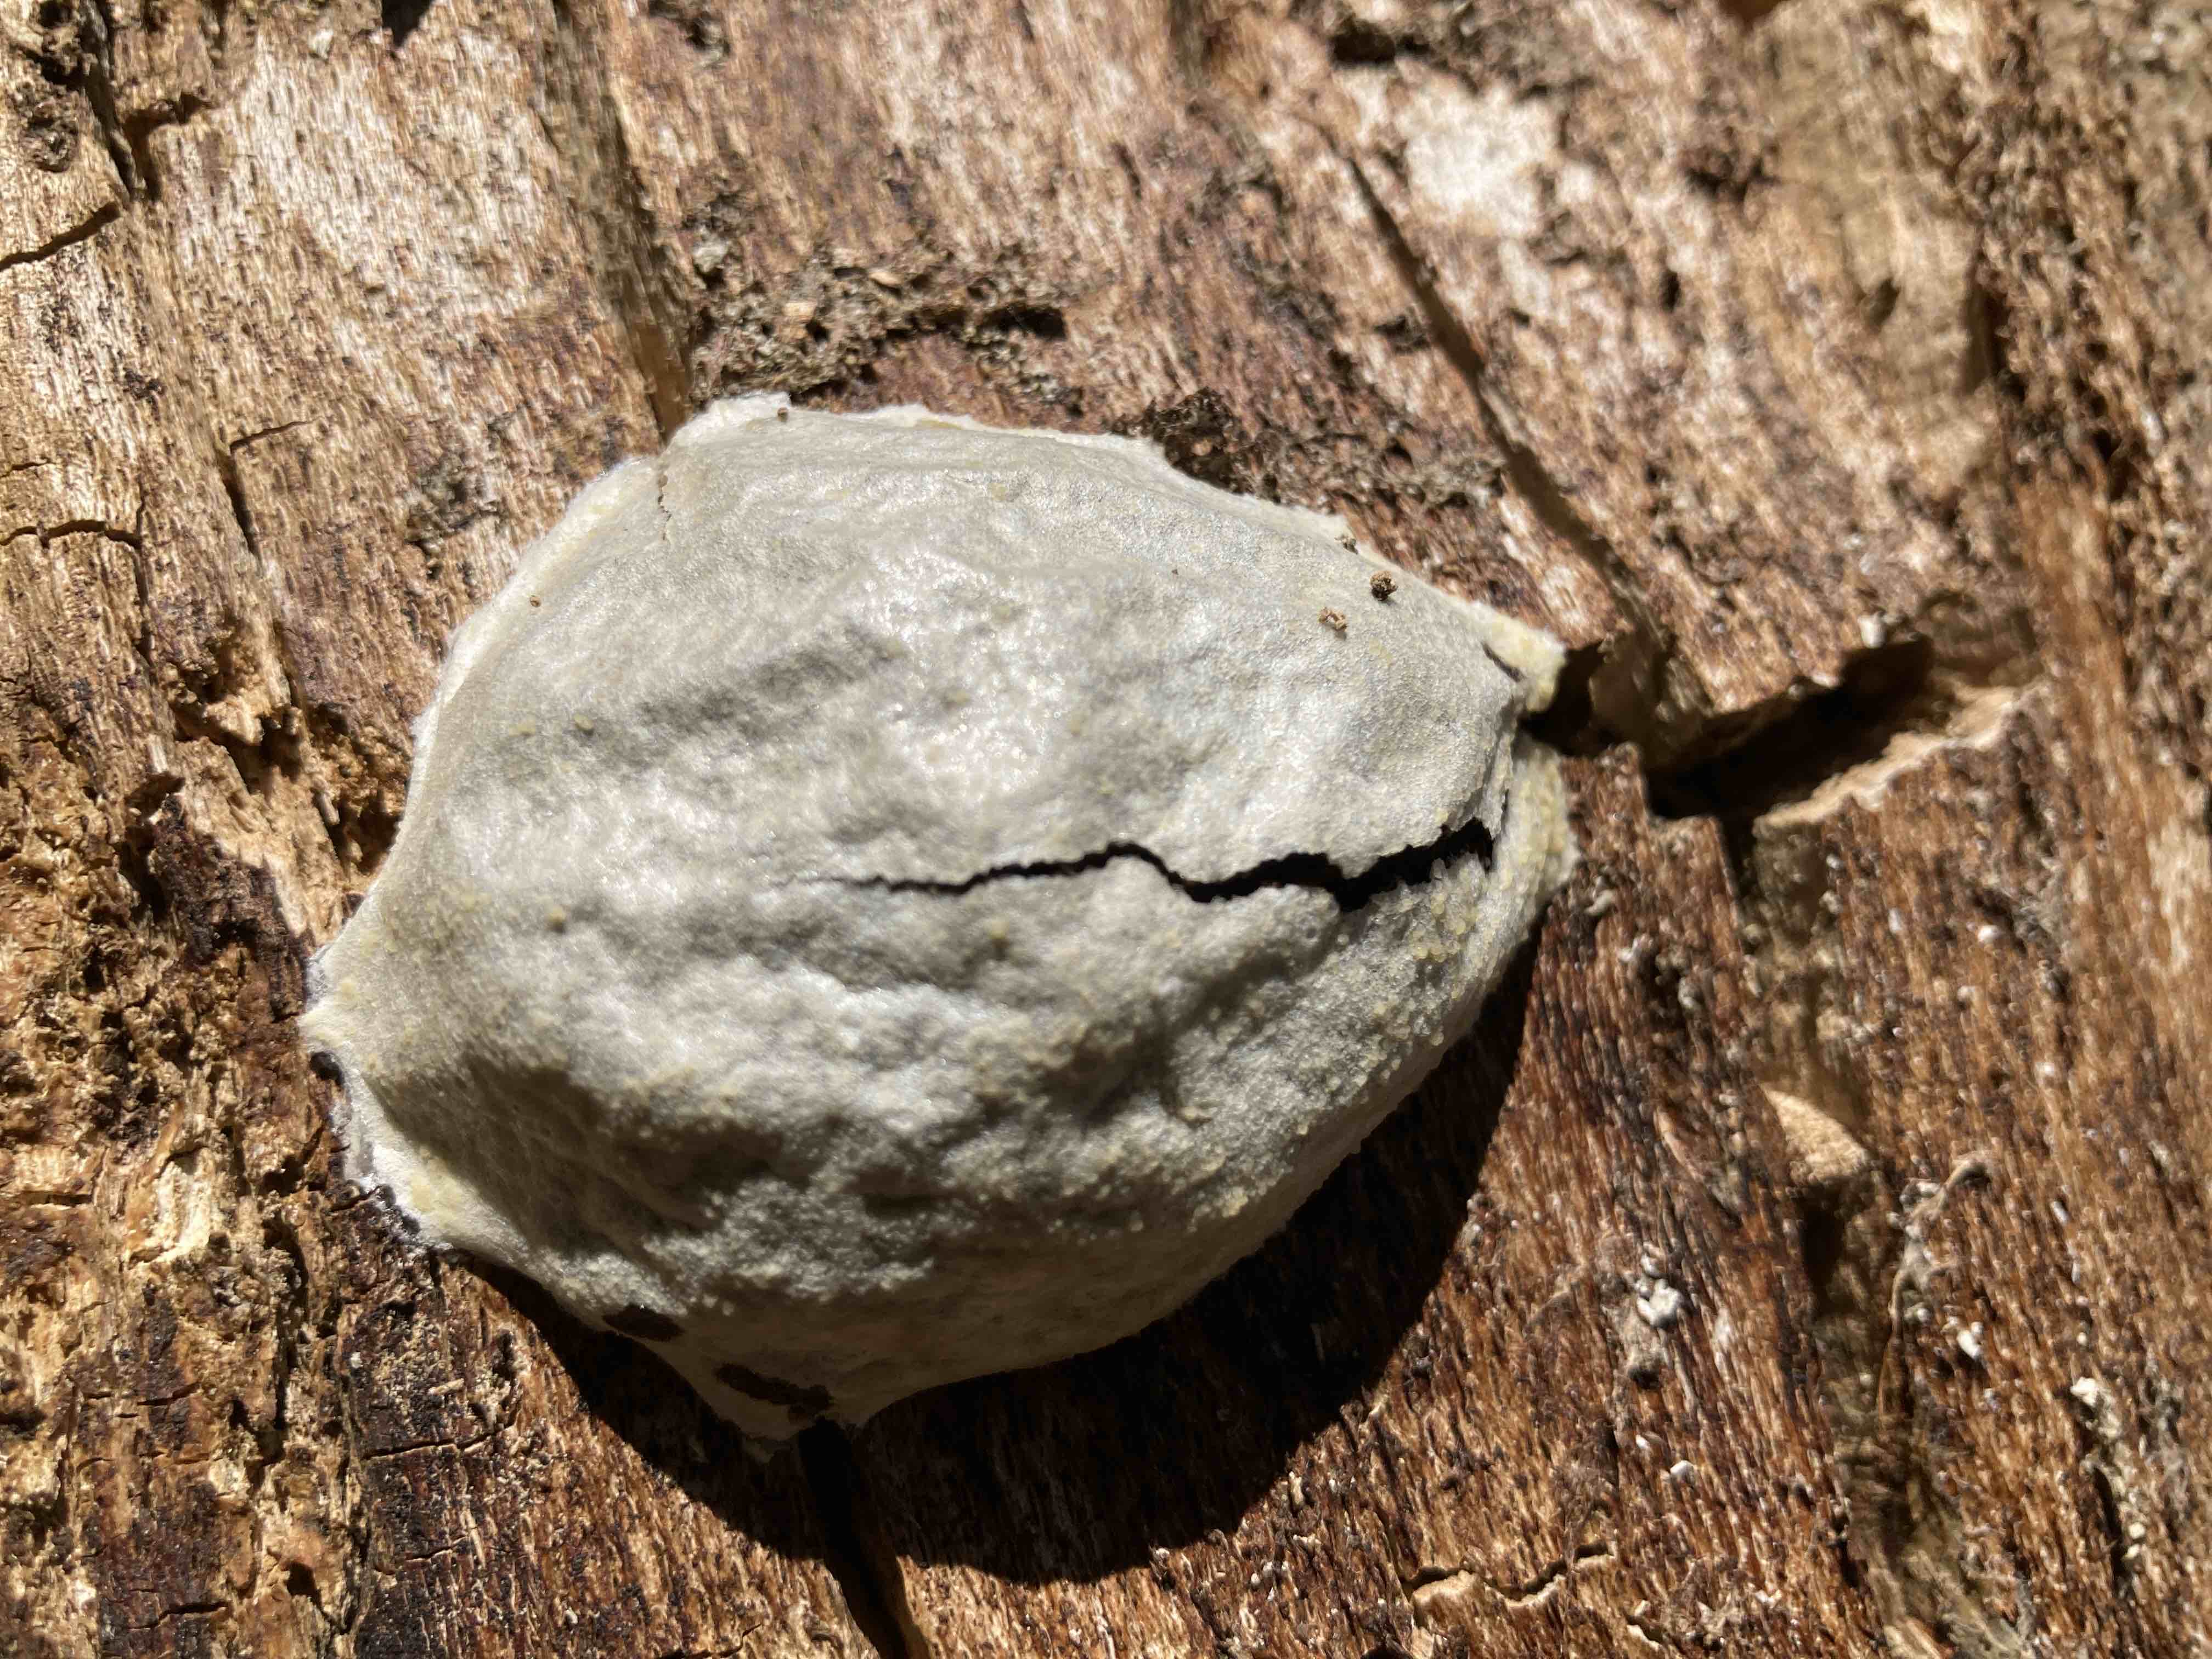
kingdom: Protozoa
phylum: Mycetozoa
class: Myxomycetes
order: Cribrariales
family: Tubiferaceae
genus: Reticularia
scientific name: Reticularia lycoperdon
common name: skinnende støvpude
